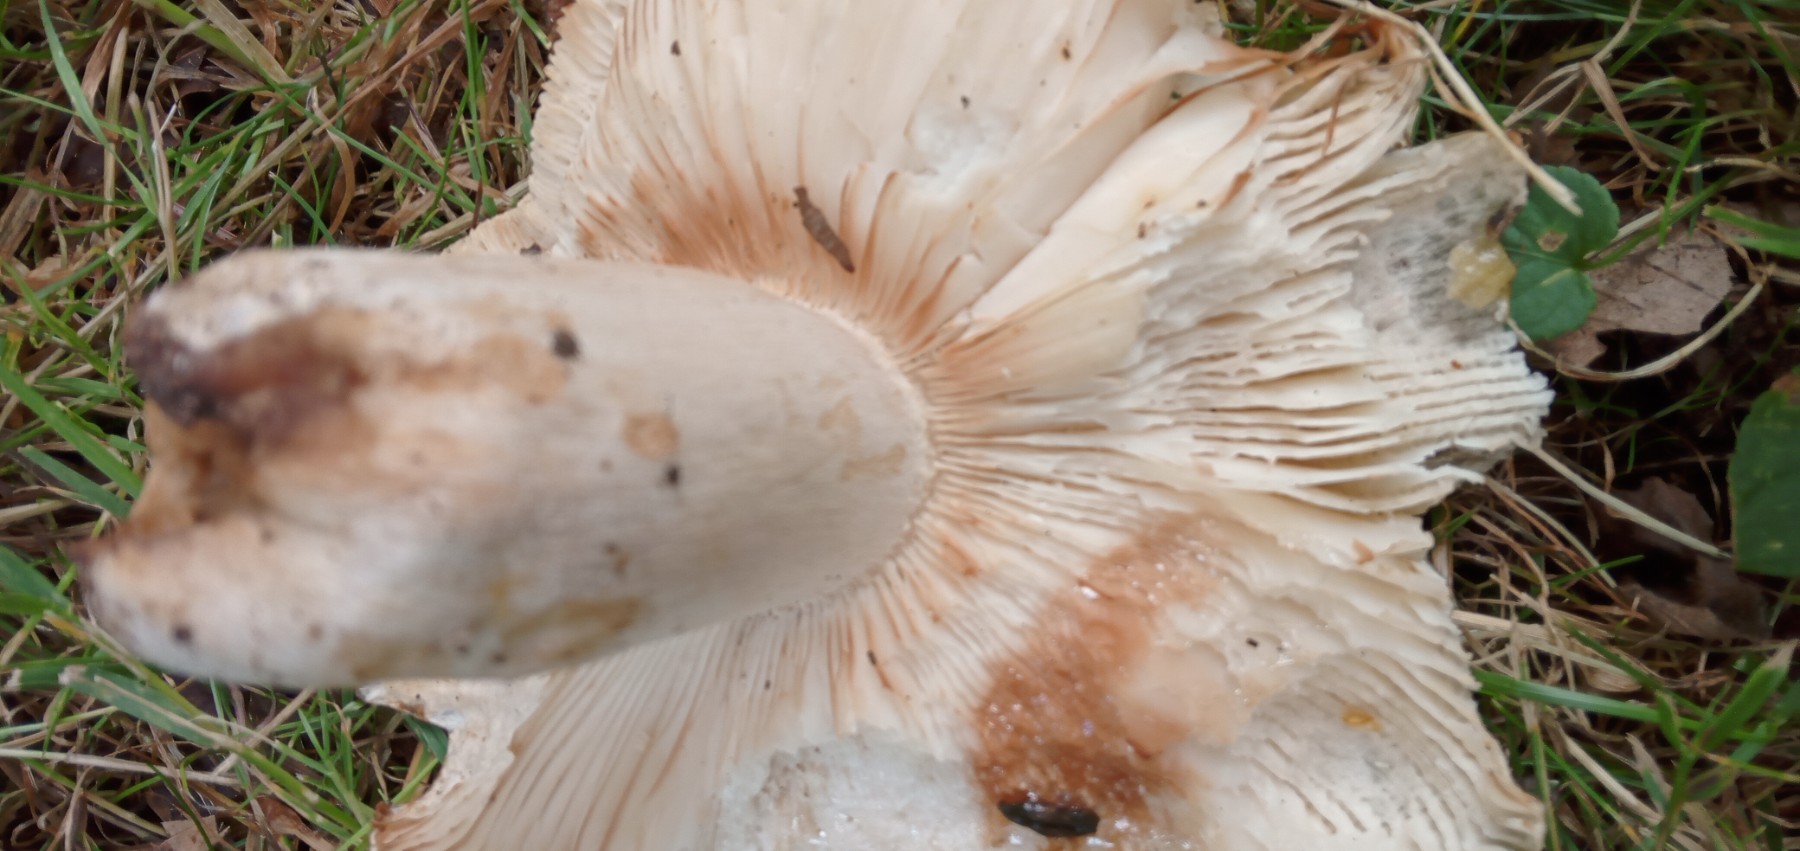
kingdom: Fungi
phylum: Basidiomycota
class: Agaricomycetes
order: Russulales
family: Russulaceae
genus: Russula
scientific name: Russula heterophylla
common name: gaffelbladet skørhat
